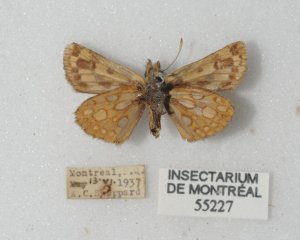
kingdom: Animalia
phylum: Arthropoda
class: Insecta
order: Lepidoptera
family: Hesperiidae
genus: Carterocephalus
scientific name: Carterocephalus palaemon
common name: Chequered Skipper
